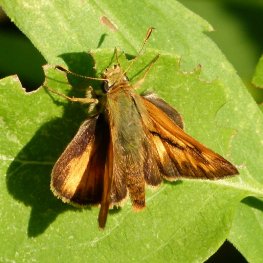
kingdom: Animalia
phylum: Arthropoda
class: Insecta
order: Lepidoptera
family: Hesperiidae
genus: Ochlodes
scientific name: Ochlodes sylvanoides
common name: Woodland Skipper
